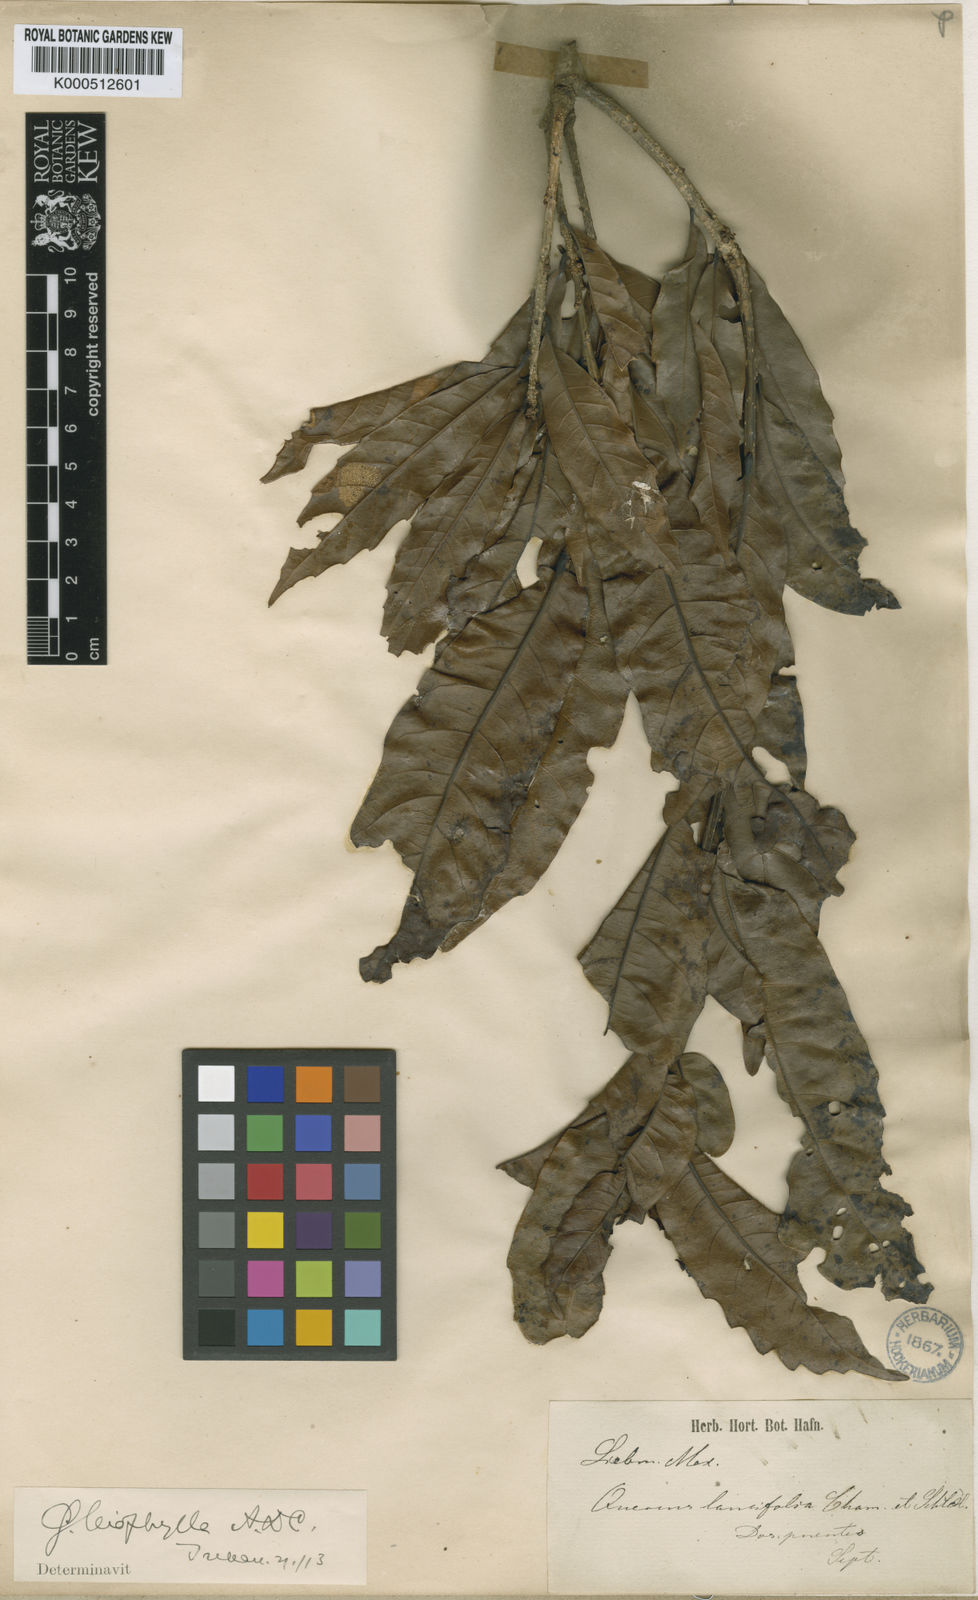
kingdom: Plantae
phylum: Tracheophyta
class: Magnoliopsida
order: Fagales
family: Fagaceae
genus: Quercus
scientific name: Quercus lancifolia
